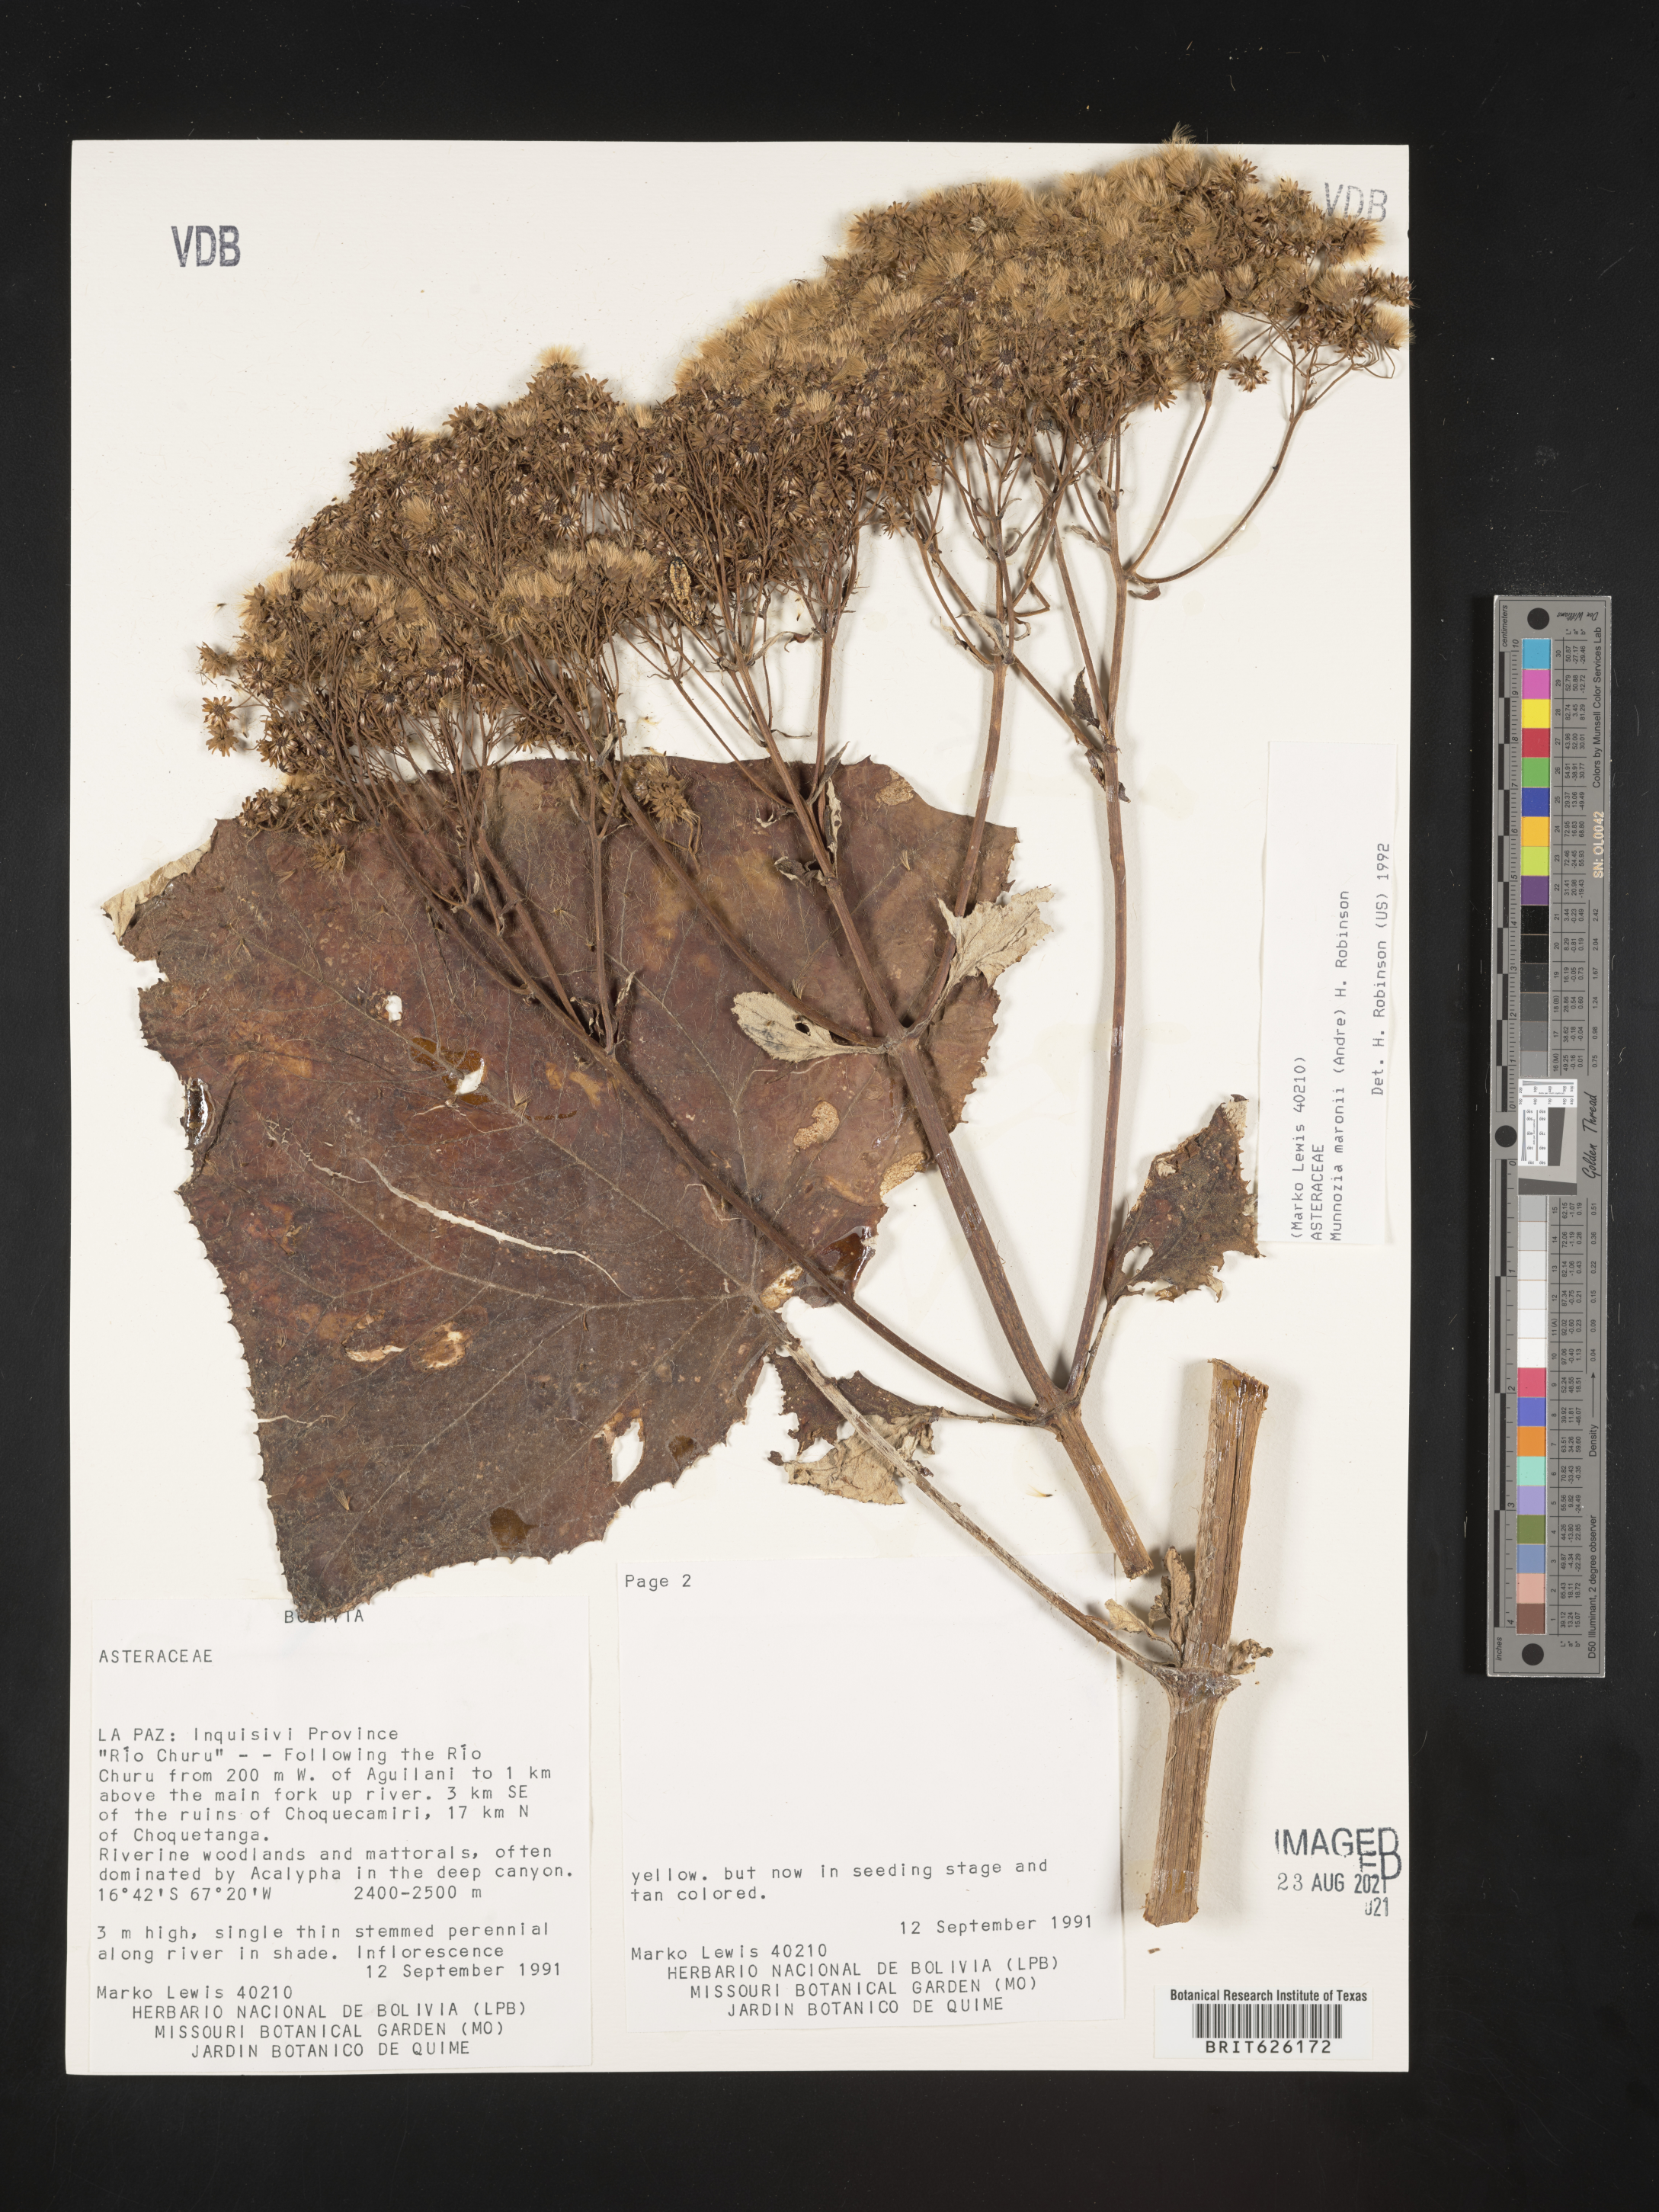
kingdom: Plantae
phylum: Tracheophyta
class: Magnoliopsida
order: Asterales
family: Asteraceae
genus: Munnozia
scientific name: Munnozia maronii
